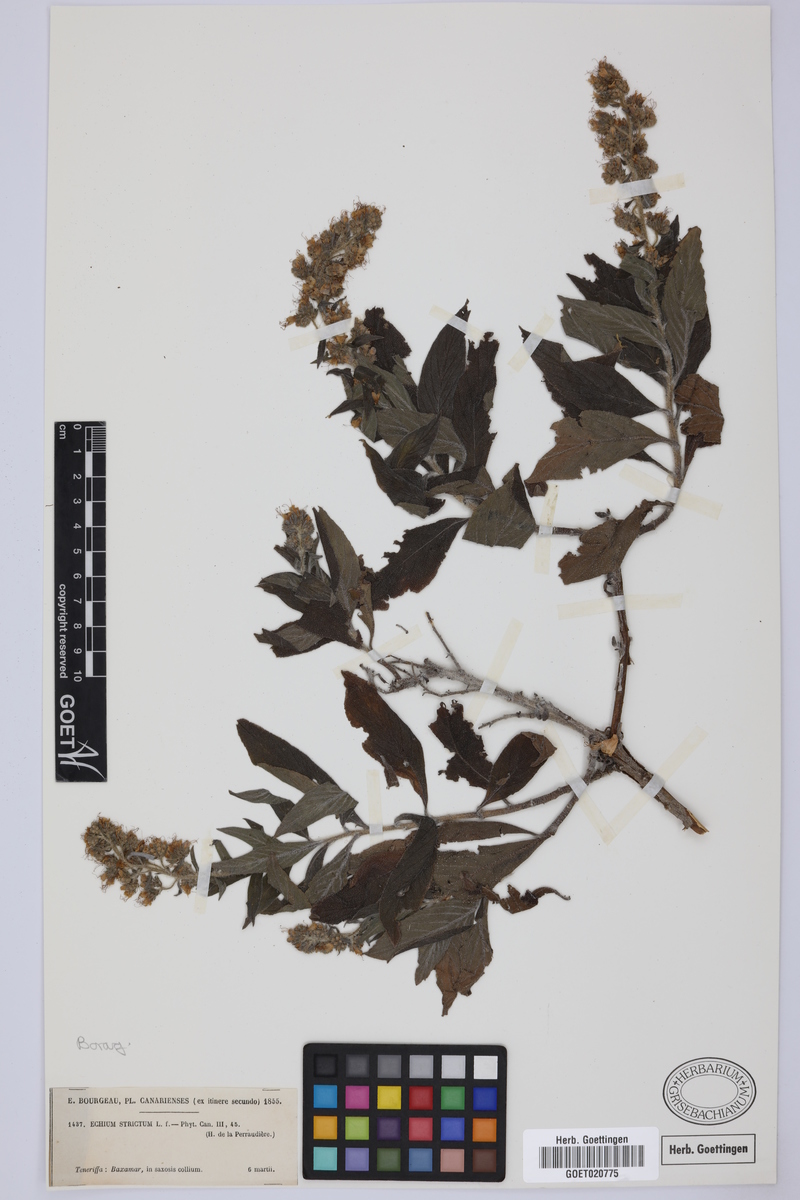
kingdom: Plantae
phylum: Tracheophyta
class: Magnoliopsida
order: Boraginales
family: Boraginaceae
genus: Echium
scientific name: Echium strictum
